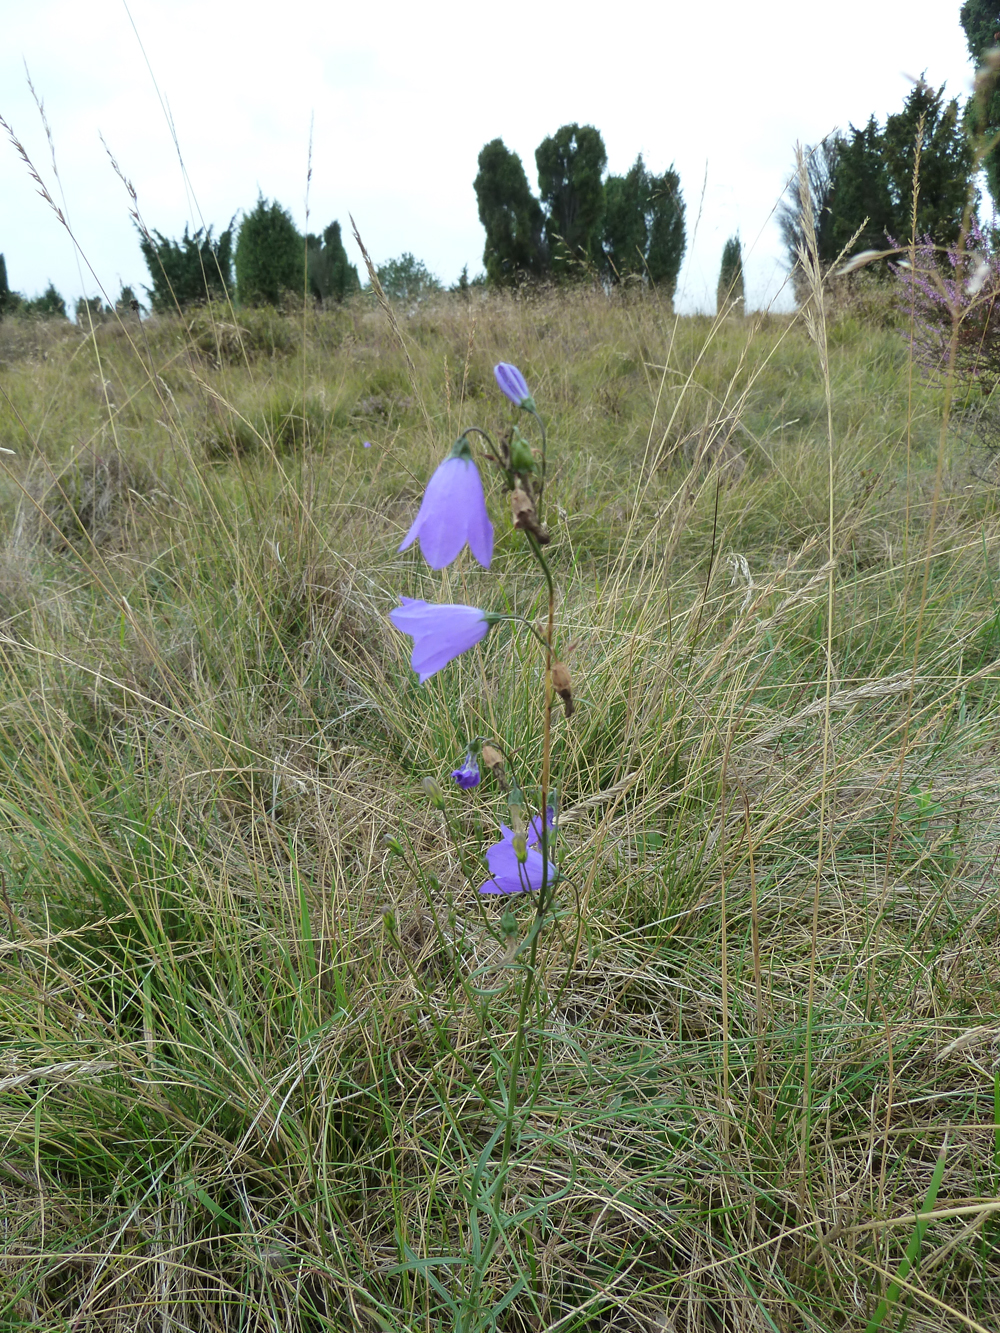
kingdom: Plantae
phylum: Tracheophyta
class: Magnoliopsida
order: Asterales
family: Campanulaceae
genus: Campanula
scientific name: Campanula rotundifolia
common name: Harebell
